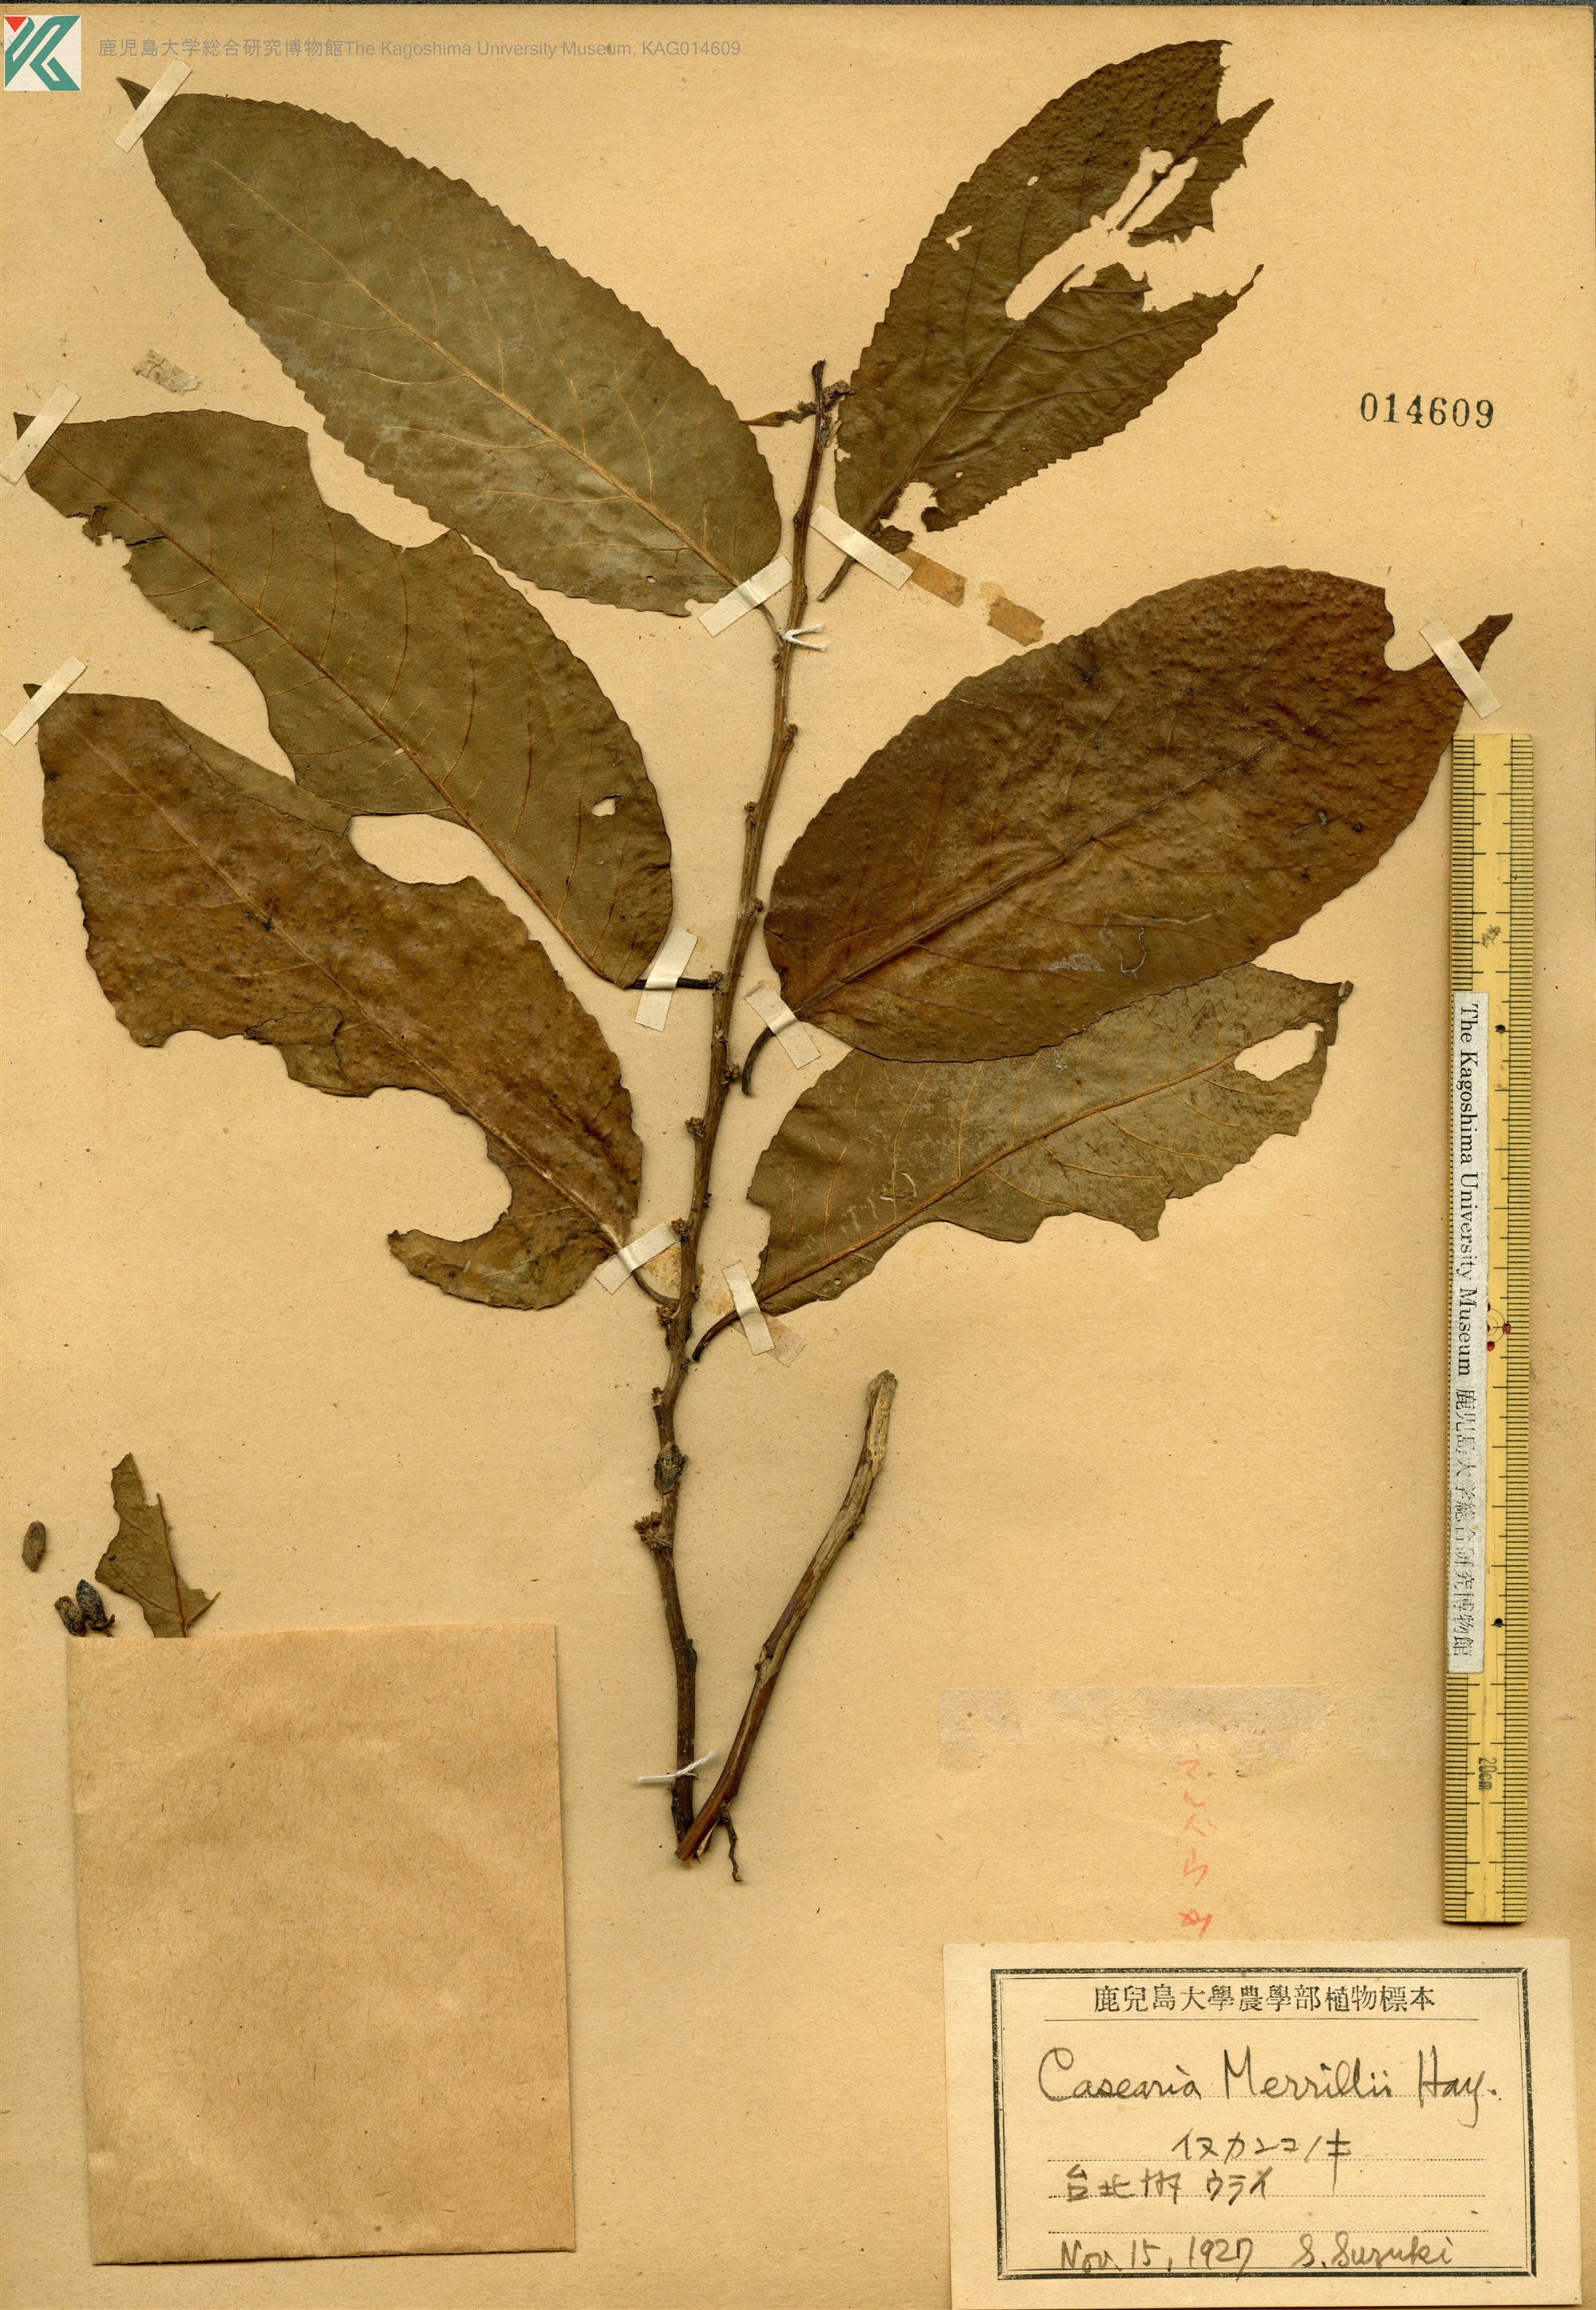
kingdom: Plantae
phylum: Tracheophyta
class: Magnoliopsida
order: Malpighiales
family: Salicaceae
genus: Casearia
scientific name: Casearia membranacea
